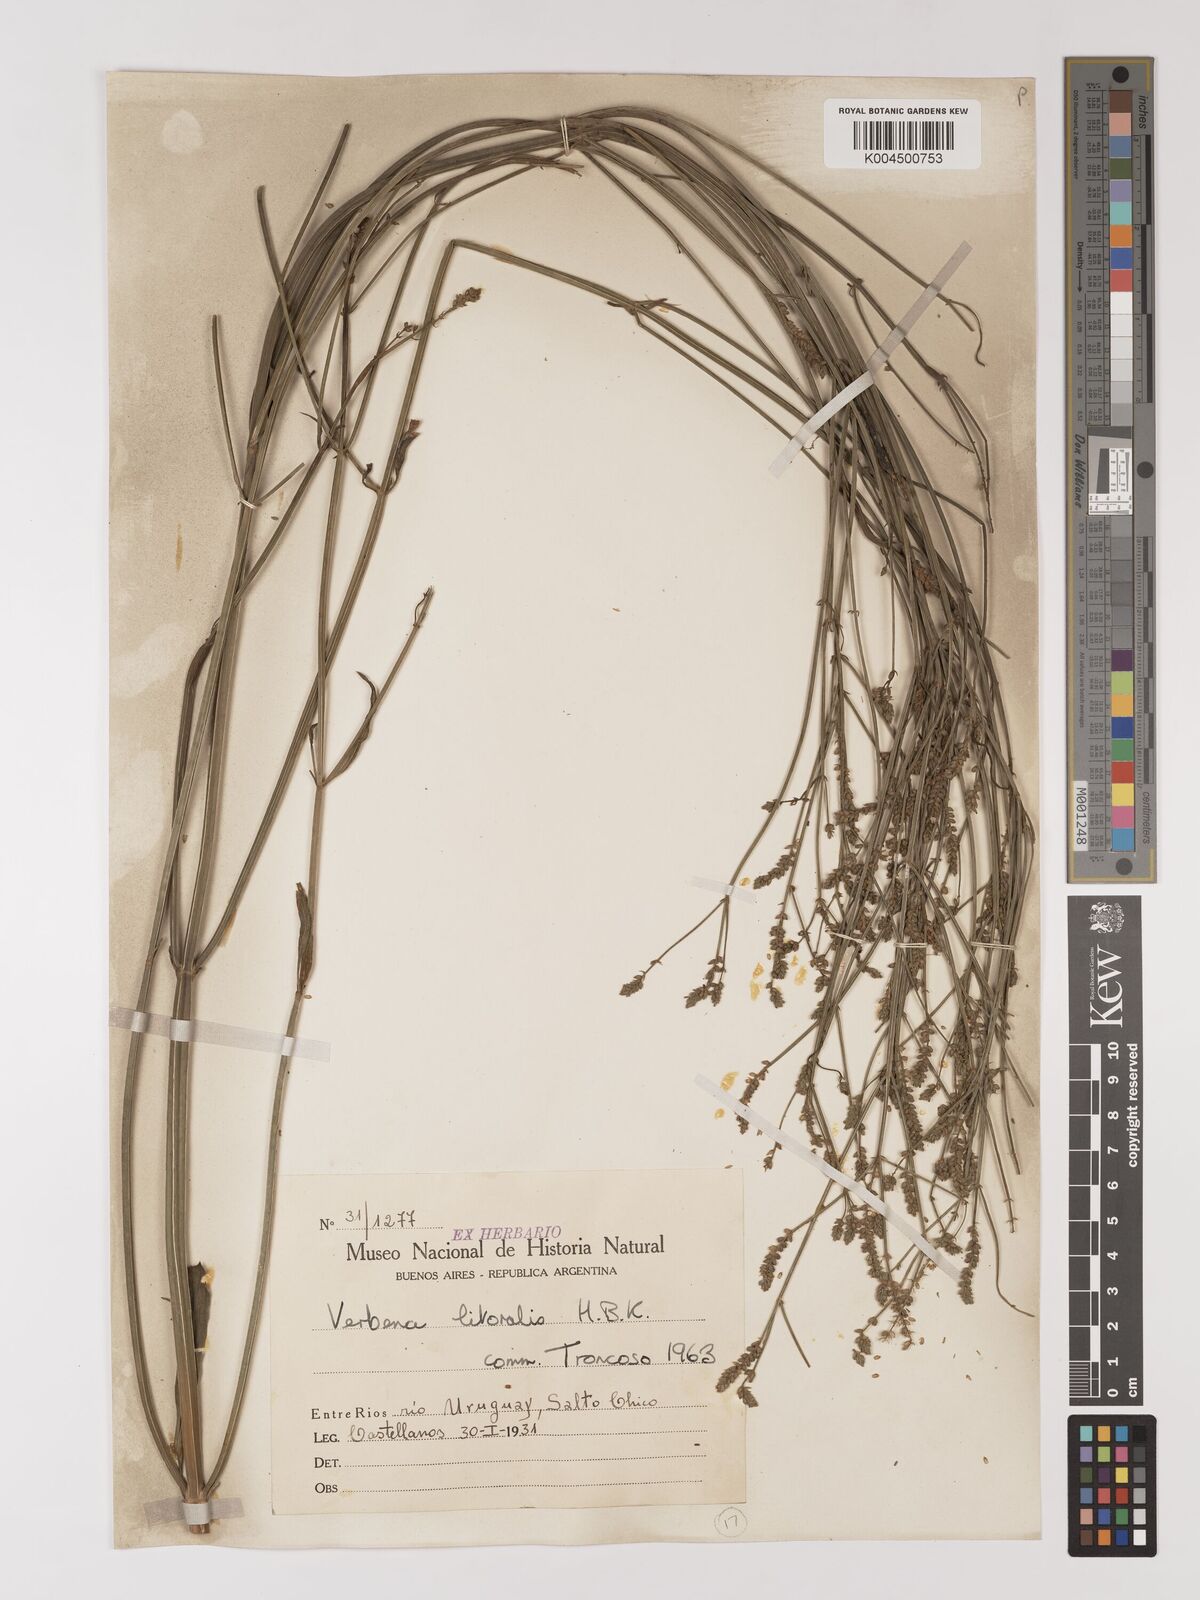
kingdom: Plantae
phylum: Tracheophyta
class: Magnoliopsida
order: Lamiales
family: Verbenaceae
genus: Verbena
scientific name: Verbena litoralis
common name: Seashore vervain
